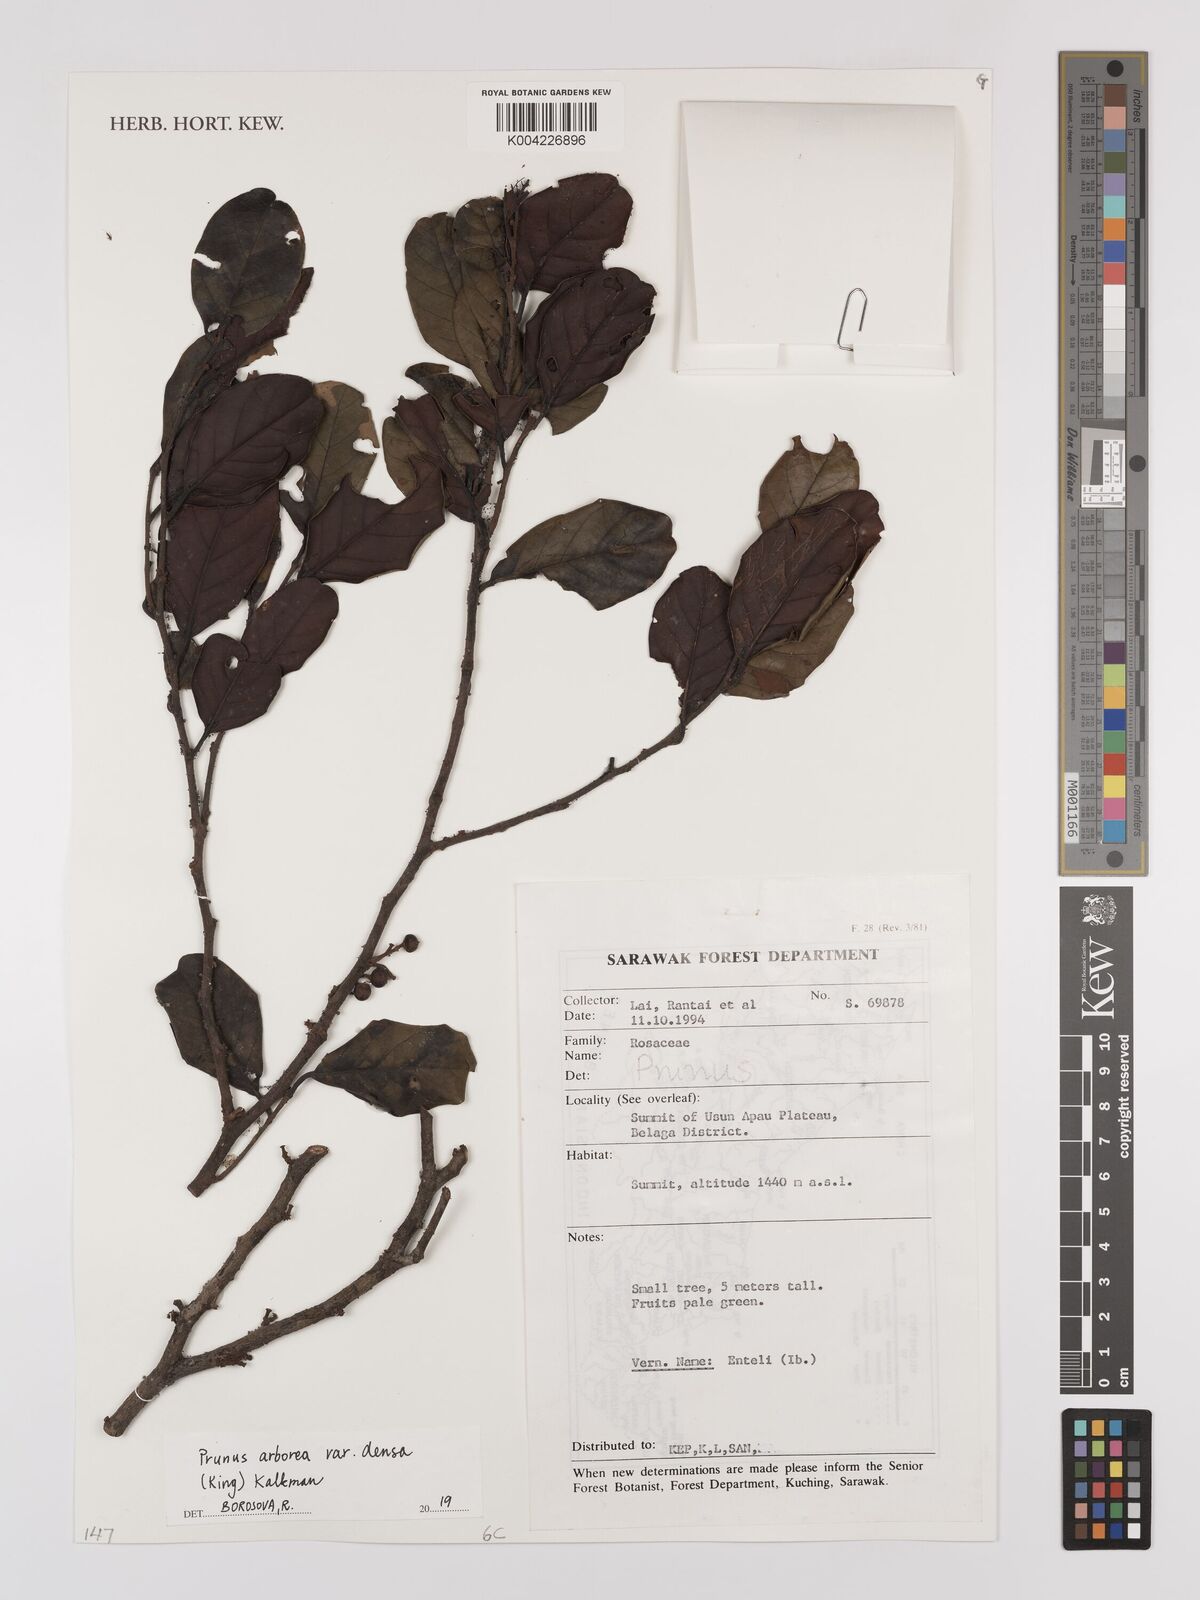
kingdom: Plantae
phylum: Tracheophyta
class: Magnoliopsida
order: Rosales
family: Rosaceae
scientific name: Rosaceae
